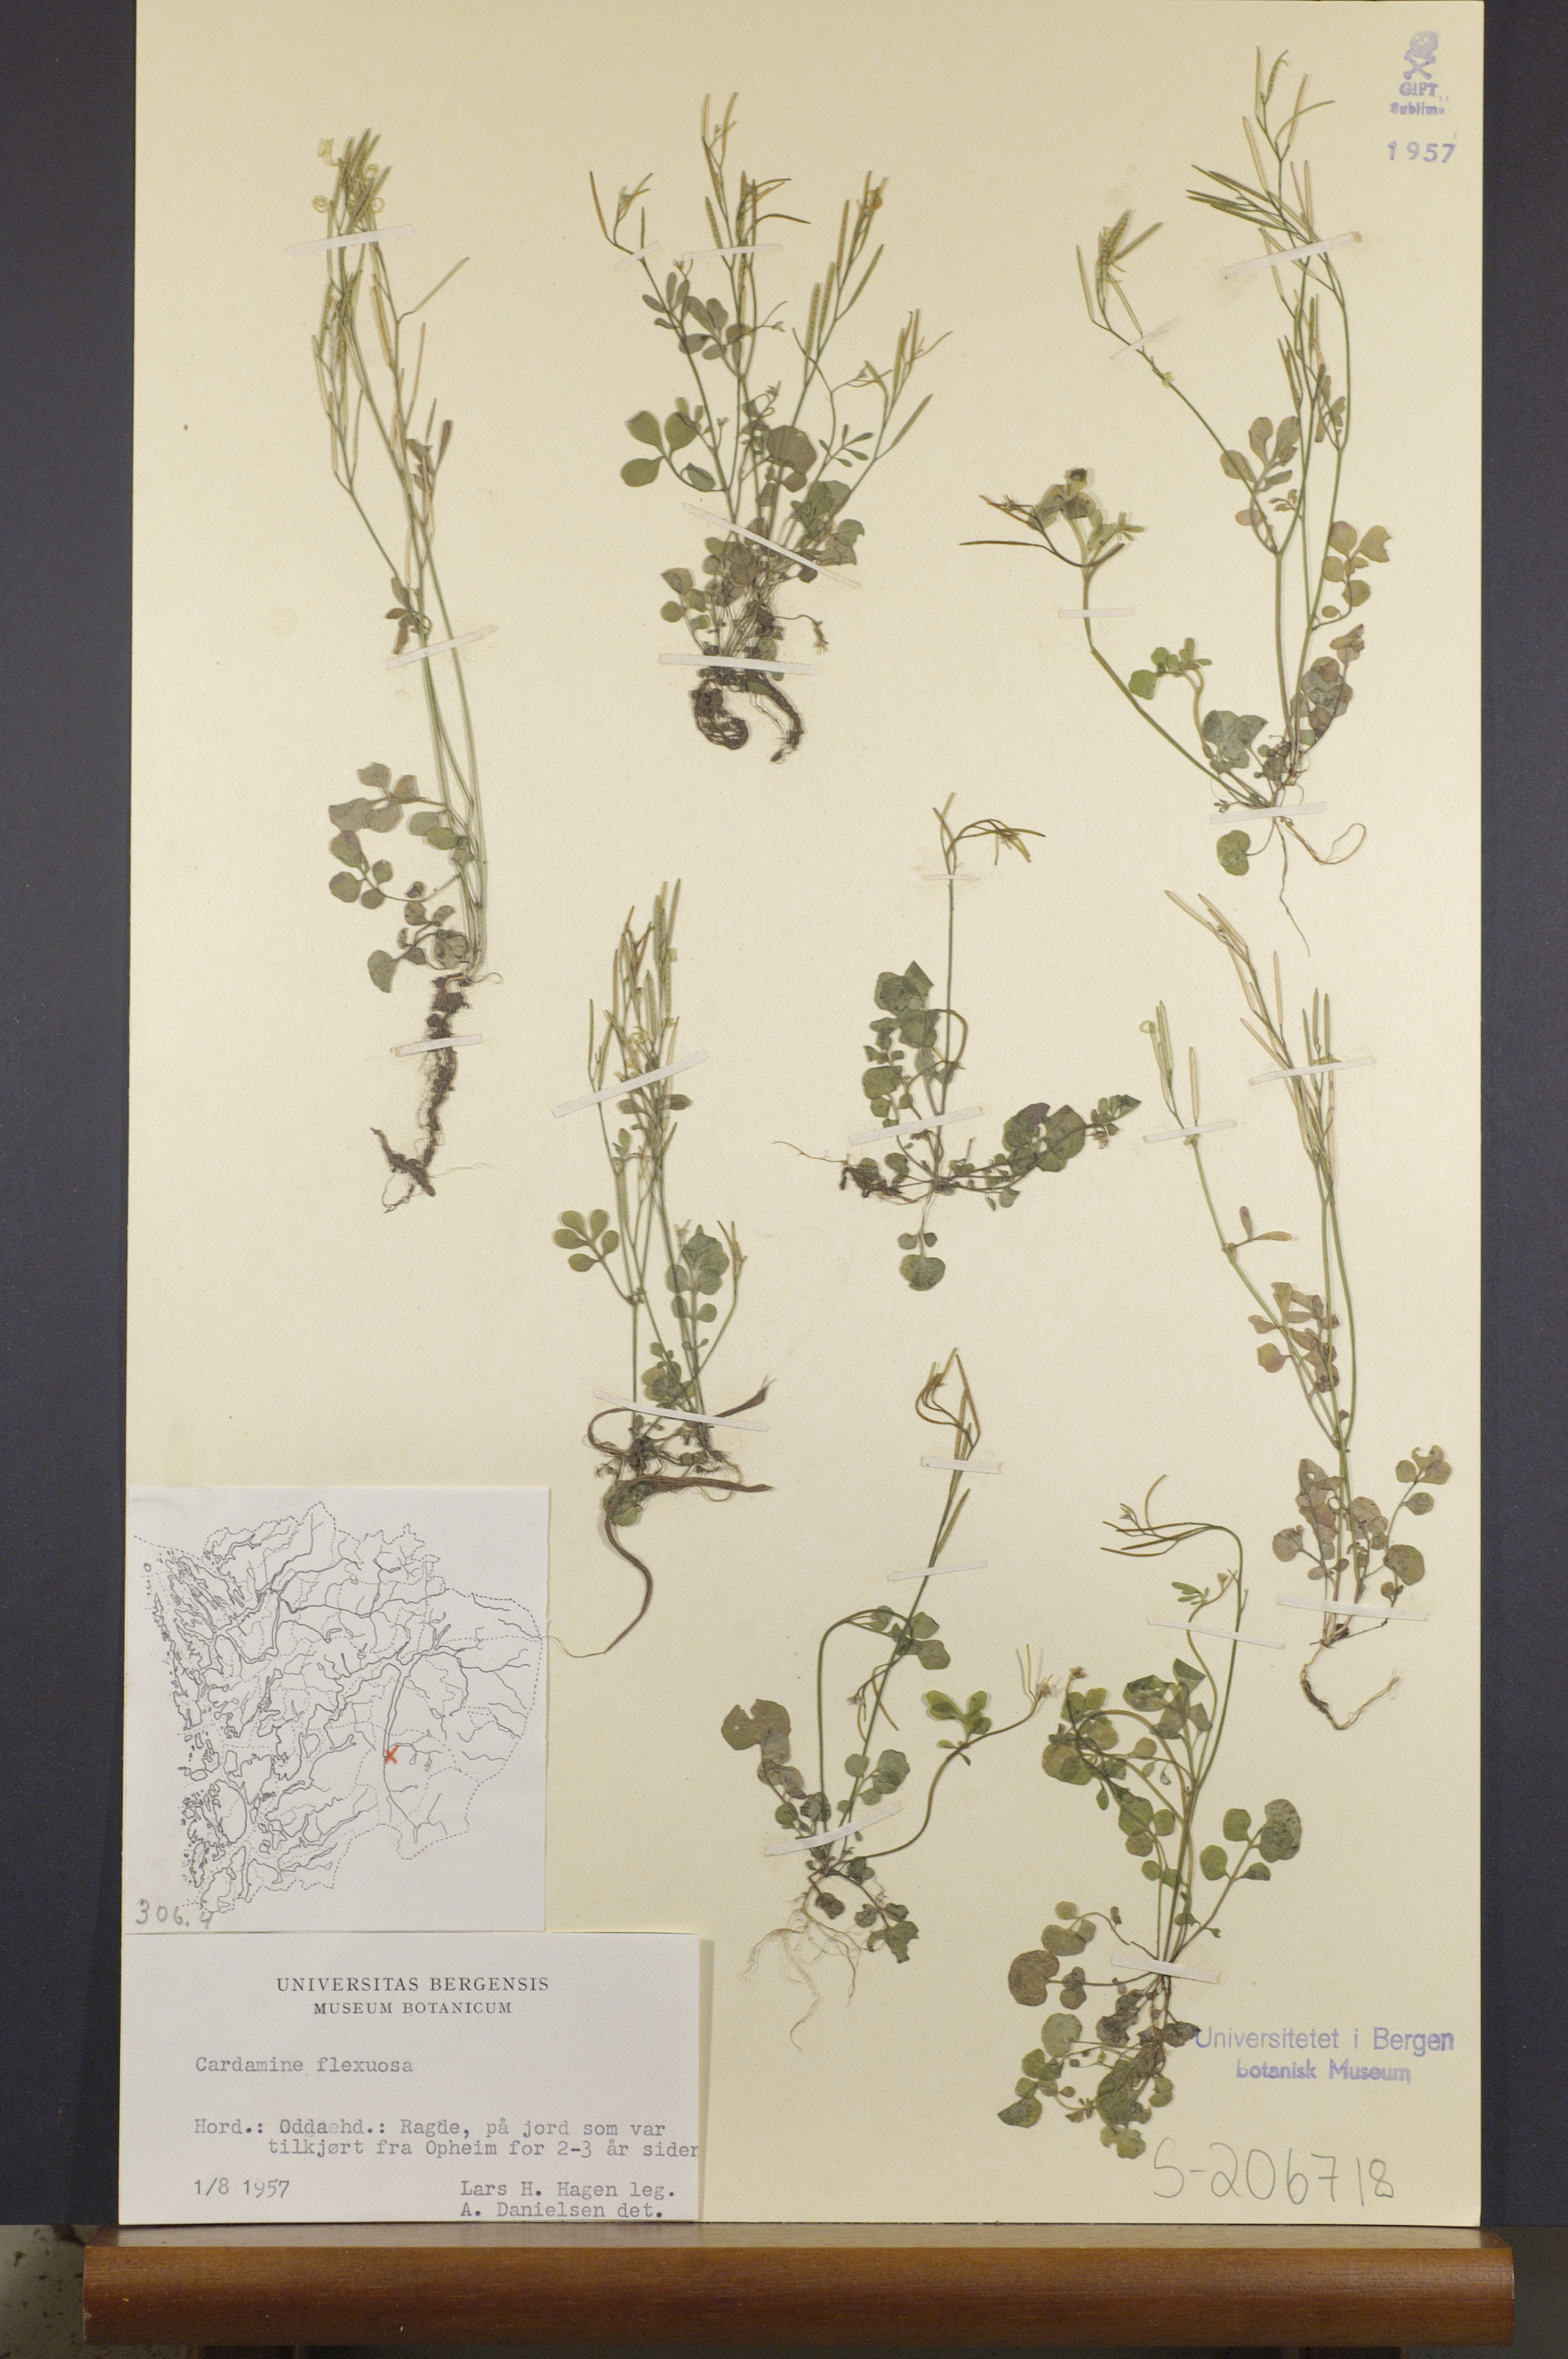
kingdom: Plantae
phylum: Tracheophyta
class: Magnoliopsida
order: Brassicales
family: Brassicaceae
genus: Cardamine
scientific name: Cardamine flexuosa
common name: Woodland bittercress
